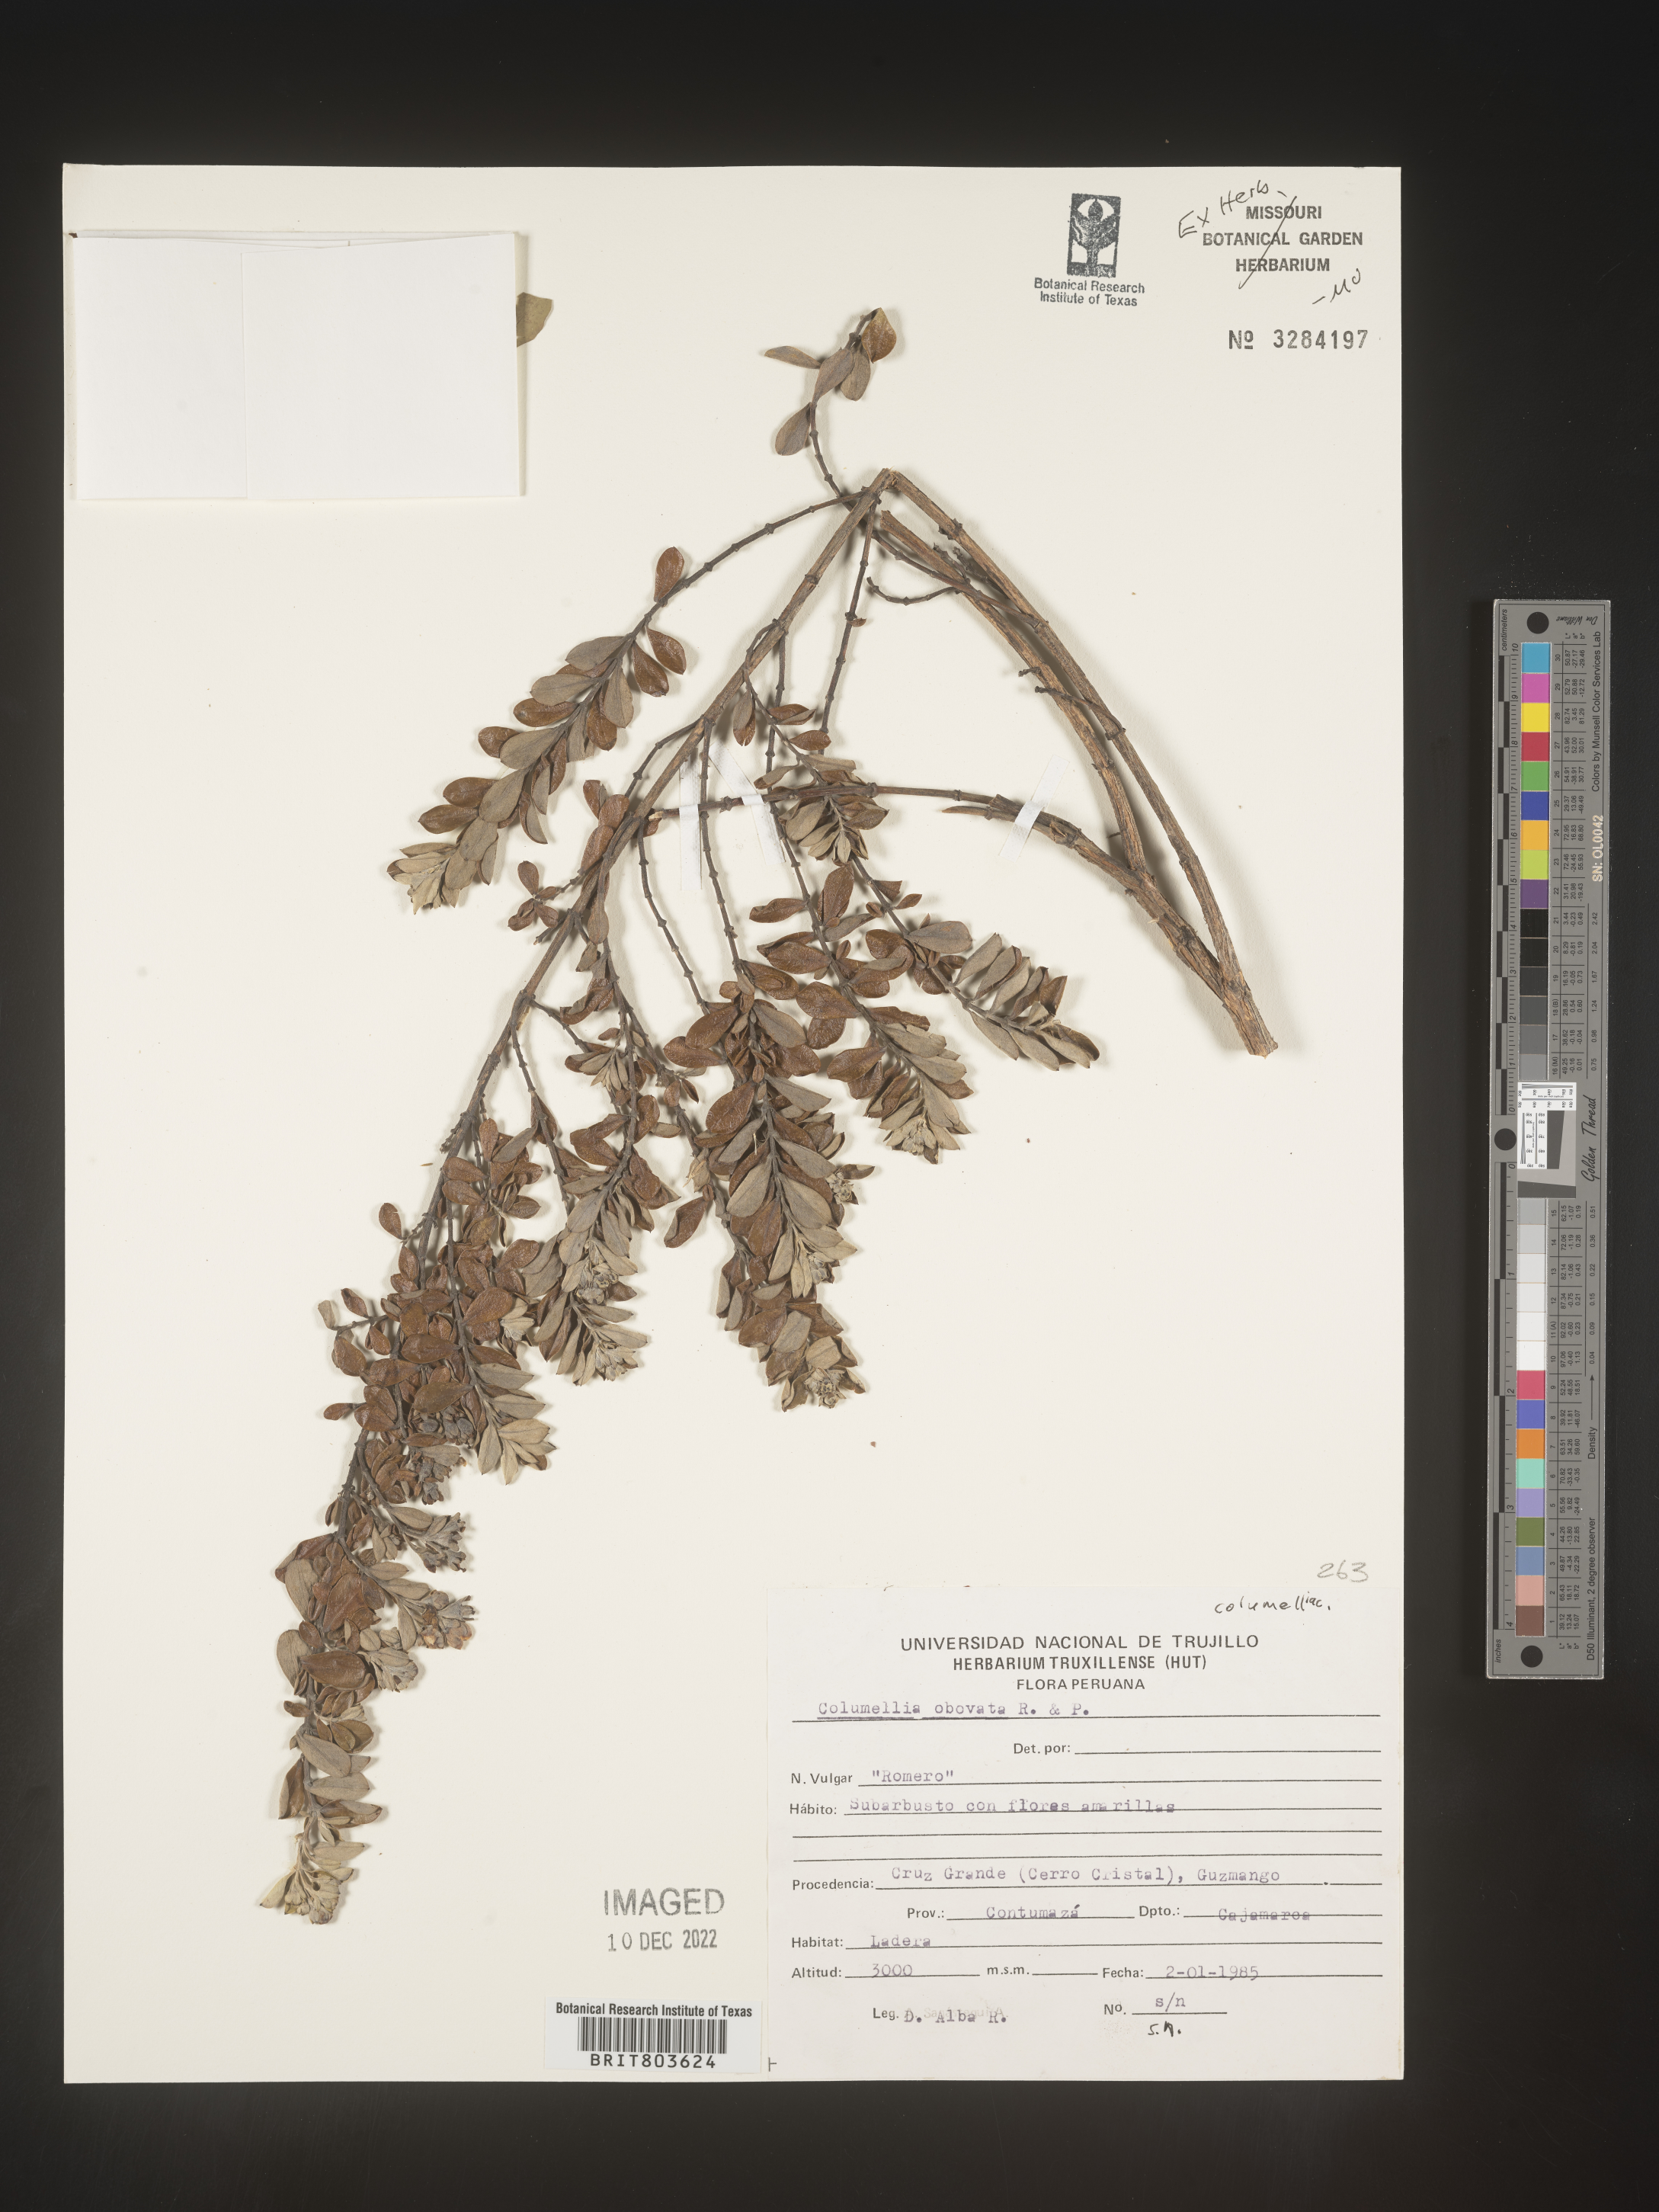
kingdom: Plantae
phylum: Tracheophyta
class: Magnoliopsida
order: Bruniales
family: Columelliaceae
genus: Columellia
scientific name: Columellia
